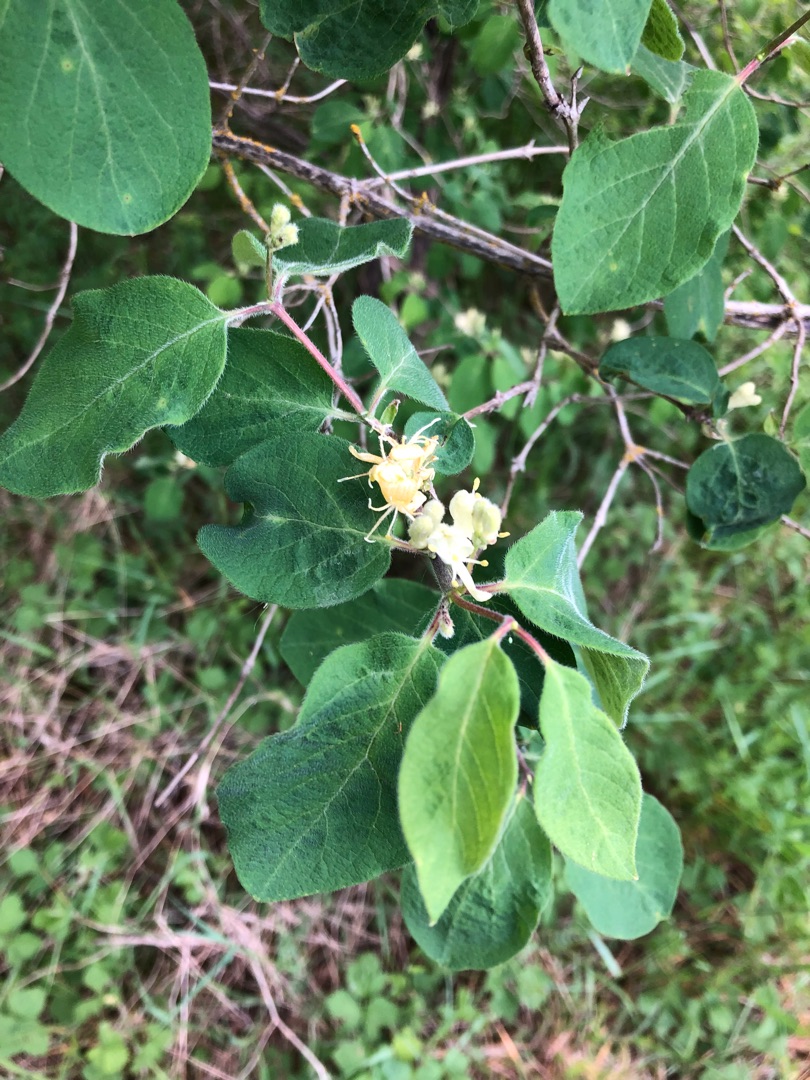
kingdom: Plantae
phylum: Tracheophyta
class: Magnoliopsida
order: Dipsacales
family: Caprifoliaceae
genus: Lonicera
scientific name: Lonicera xylosteum
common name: Dunet gedeblad
